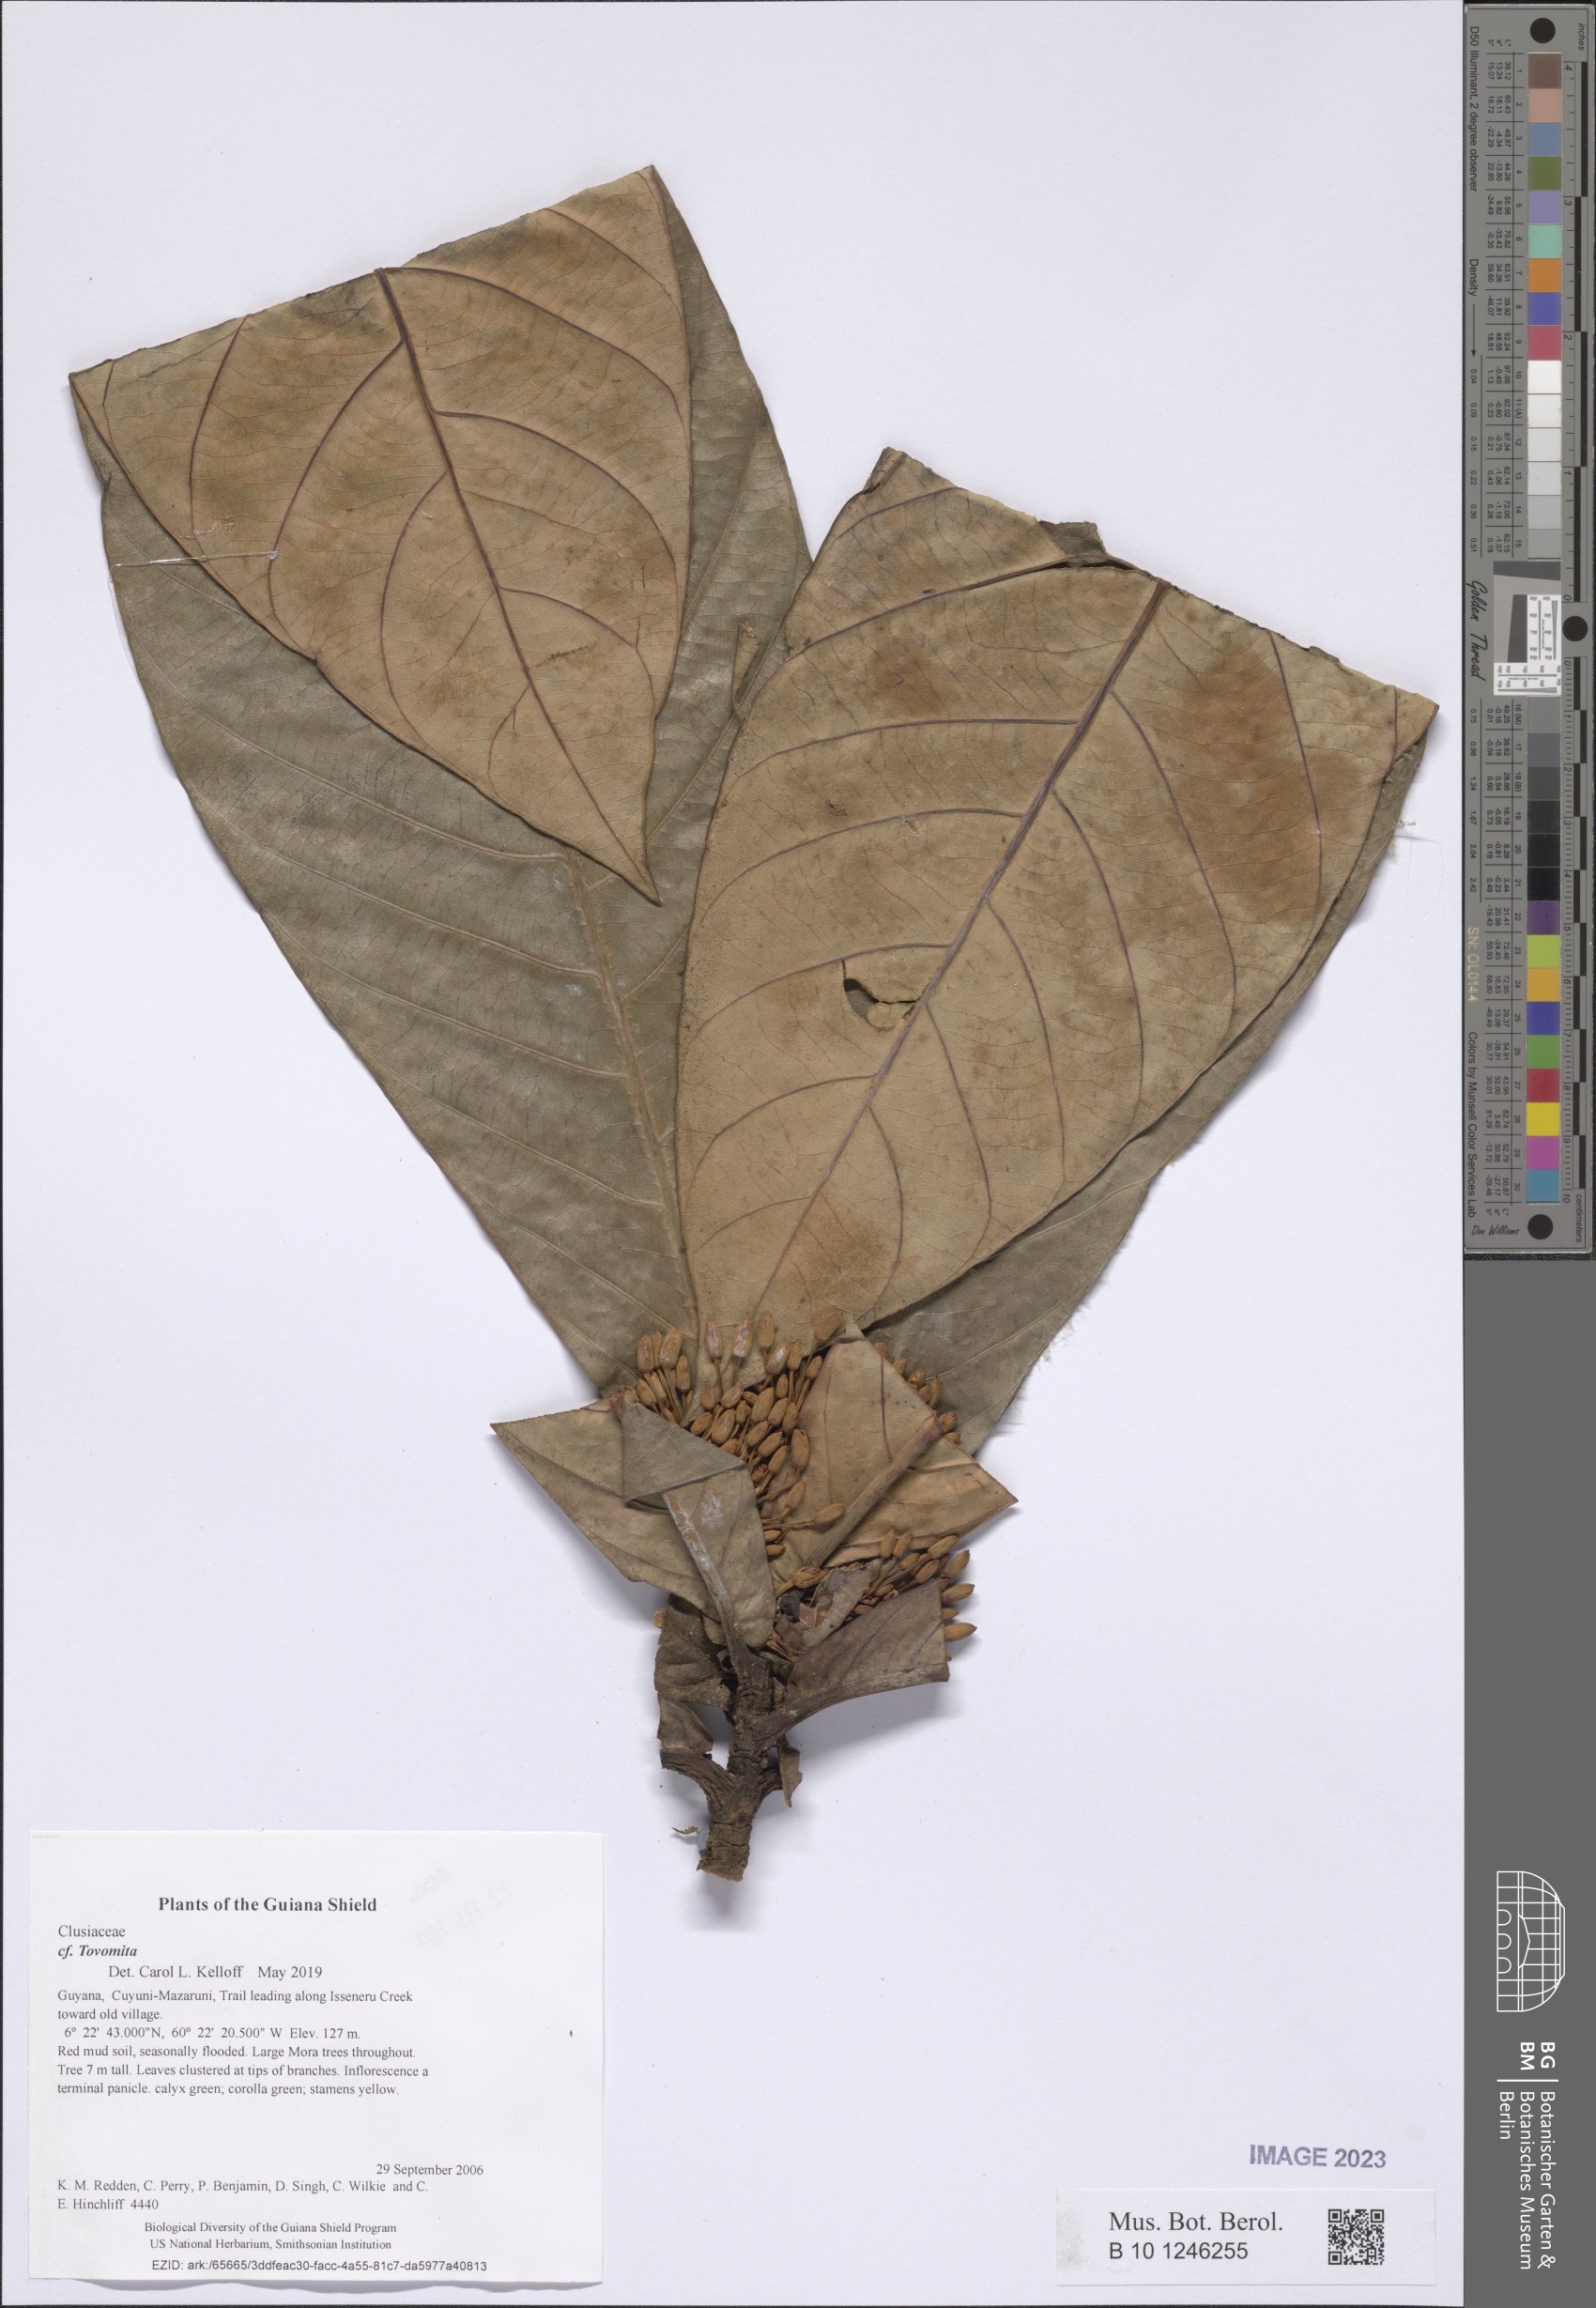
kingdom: Plantae
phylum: Tracheophyta
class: Magnoliopsida
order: Malpighiales
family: Clusiaceae
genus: Tovomita
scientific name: Tovomita
